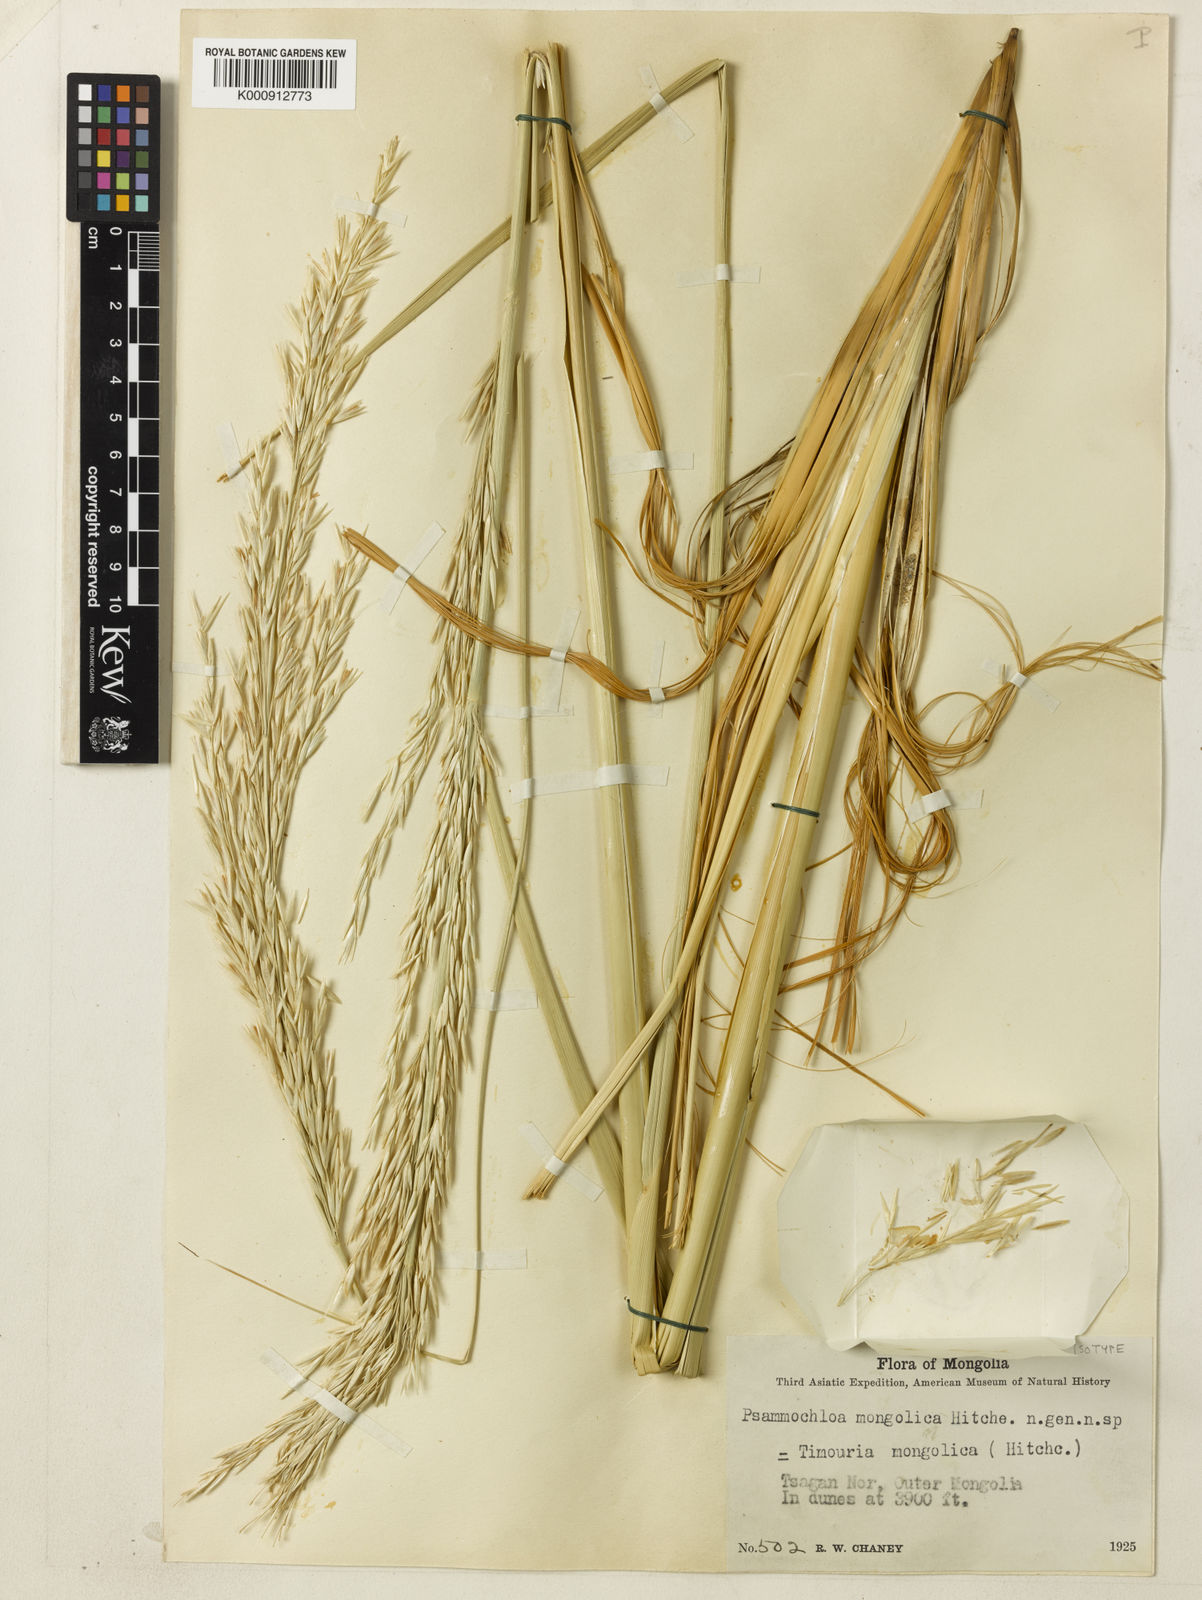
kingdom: Plantae
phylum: Tracheophyta
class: Liliopsida
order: Poales
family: Poaceae
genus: Psammochloa
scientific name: Psammochloa villosa
